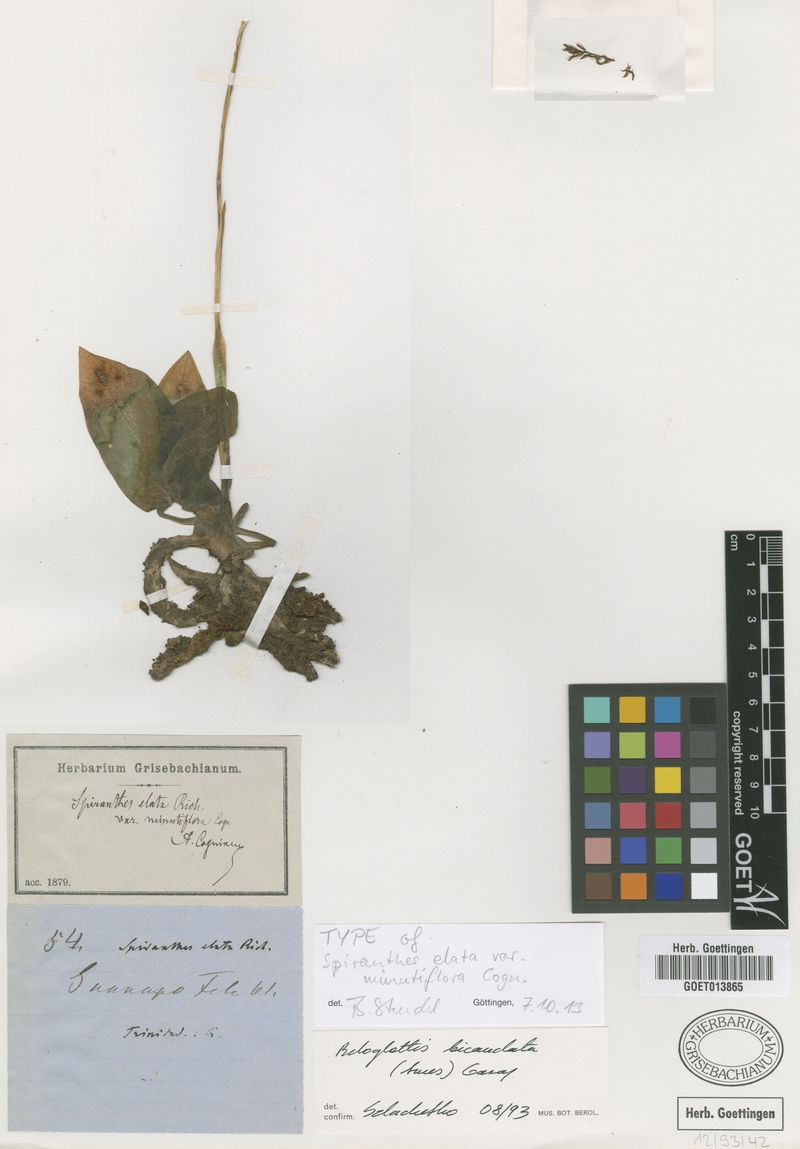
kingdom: Plantae
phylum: Tracheophyta
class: Liliopsida
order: Asparagales
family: Orchidaceae
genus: Cyclopogon
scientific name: Cyclopogon elatus
